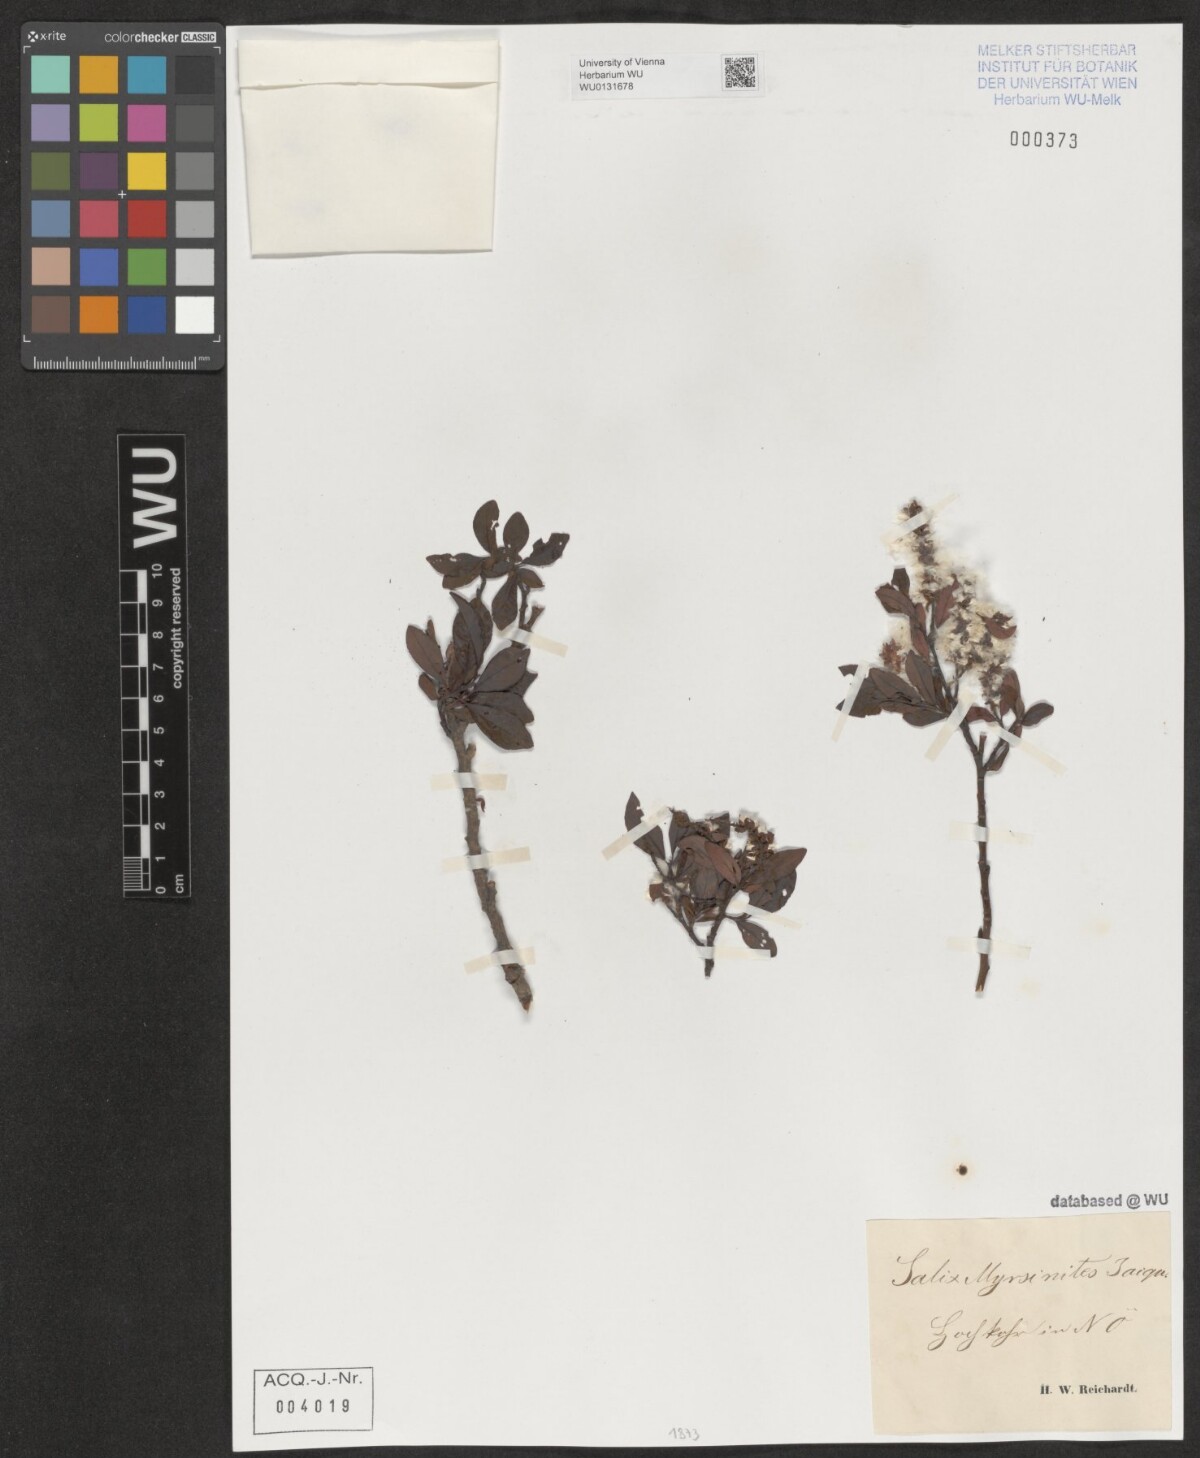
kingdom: Plantae
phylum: Tracheophyta
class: Magnoliopsida
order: Malpighiales
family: Salicaceae
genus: Salix
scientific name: Salix myrsinites
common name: Myrtle willow
